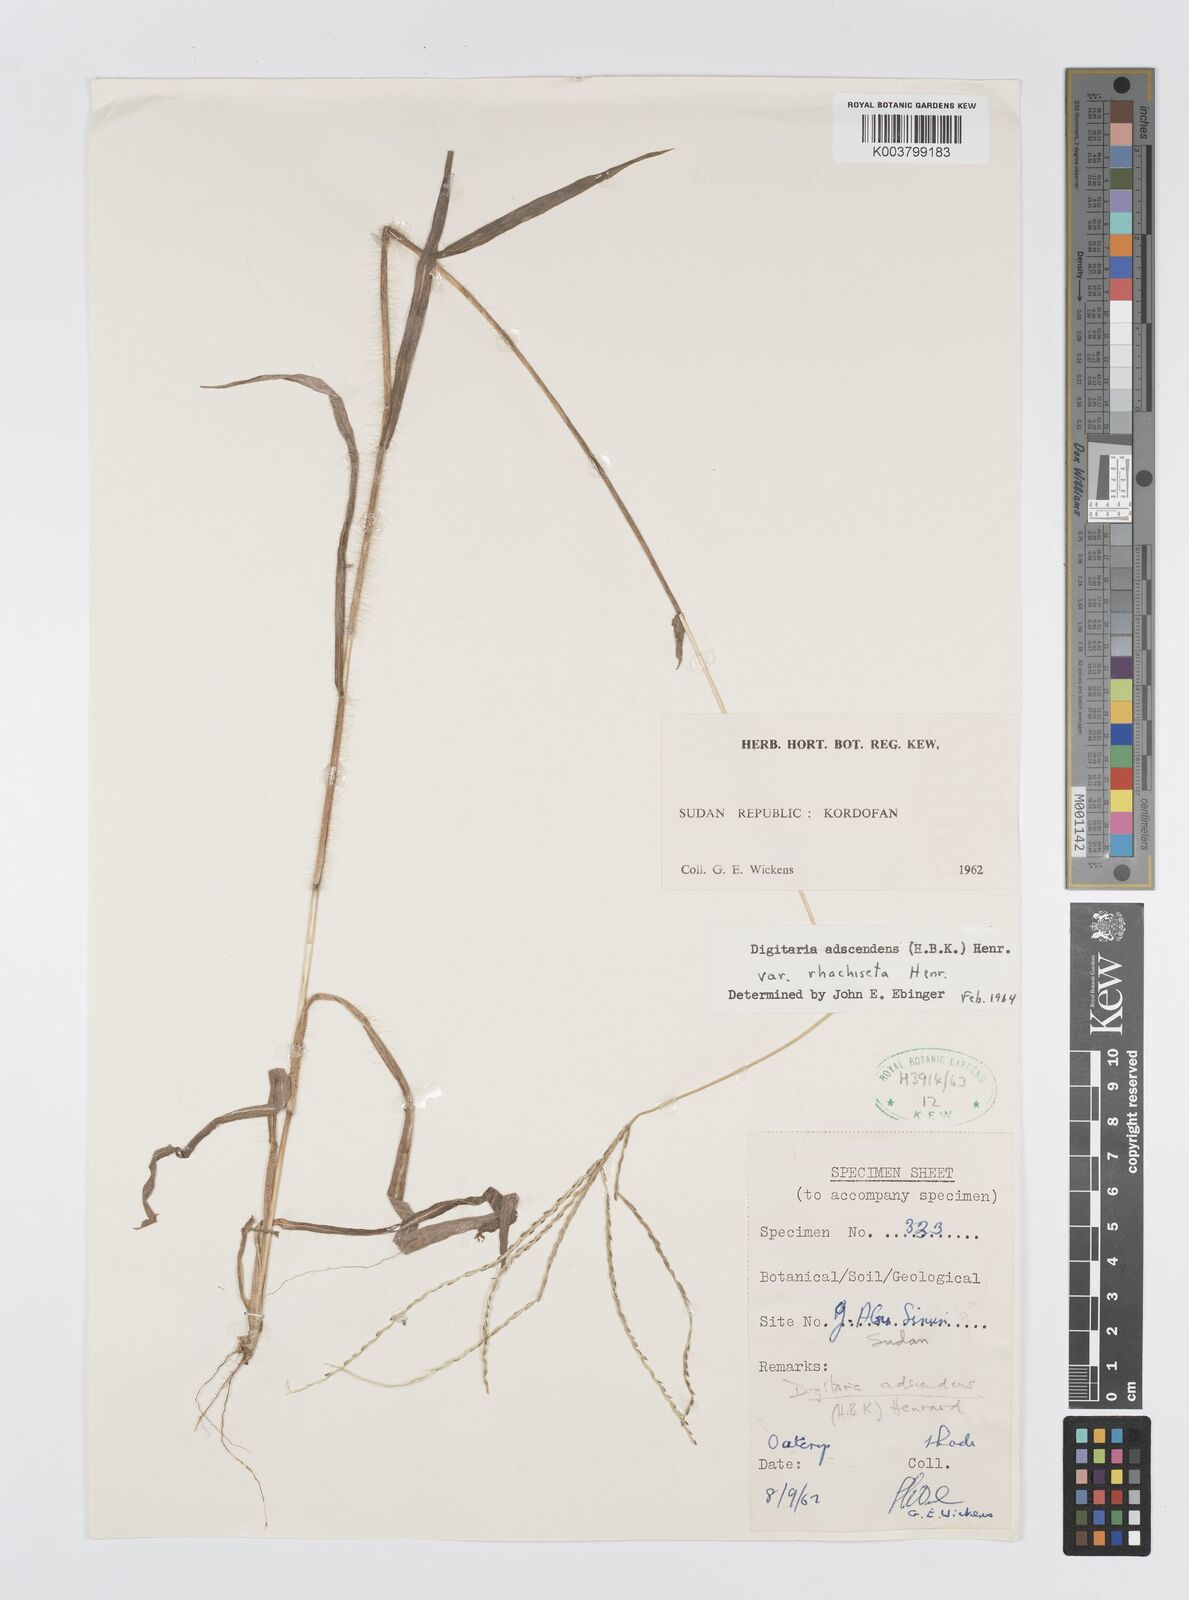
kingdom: Plantae
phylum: Tracheophyta
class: Liliopsida
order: Poales
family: Poaceae
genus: Digitaria
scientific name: Digitaria spec
